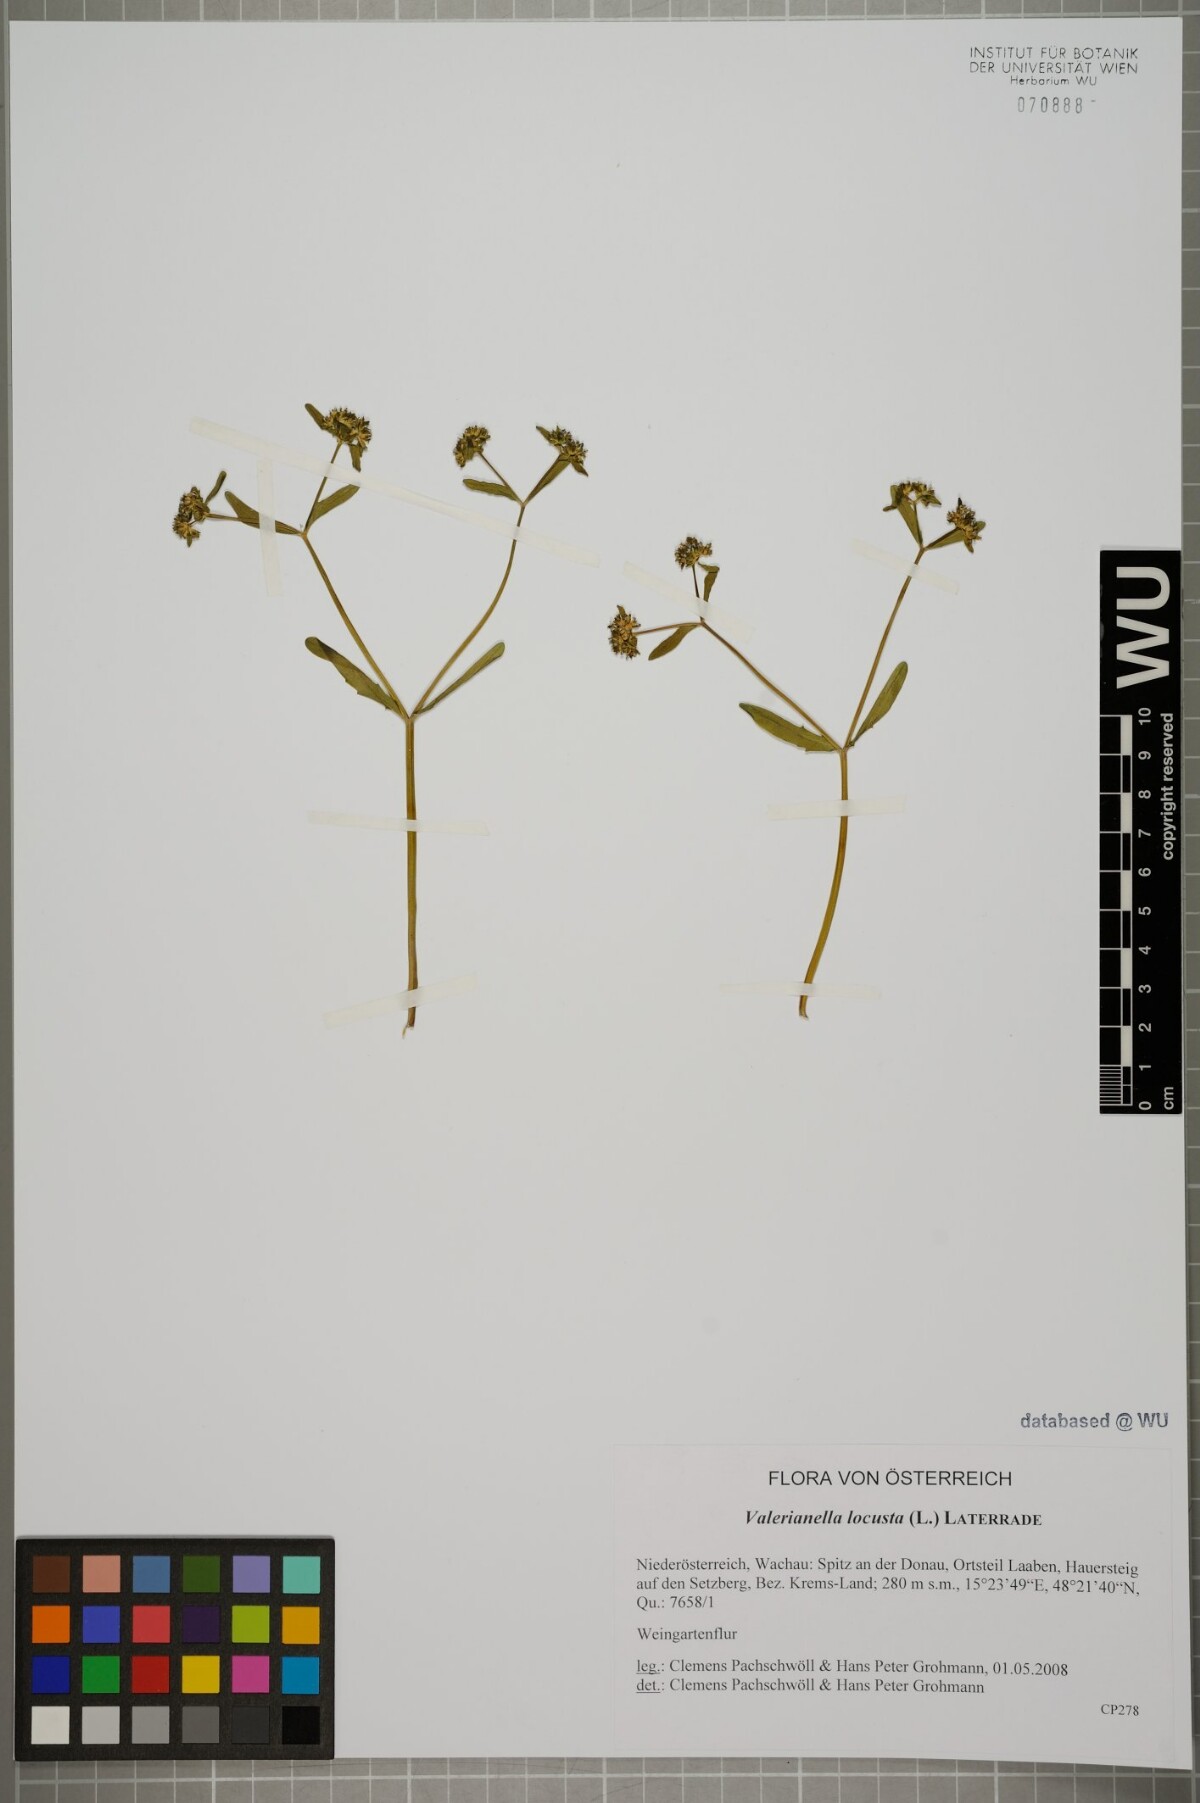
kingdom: Plantae
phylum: Tracheophyta
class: Magnoliopsida
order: Dipsacales
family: Caprifoliaceae
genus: Valerianella
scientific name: Valerianella locusta
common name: Common cornsalad
